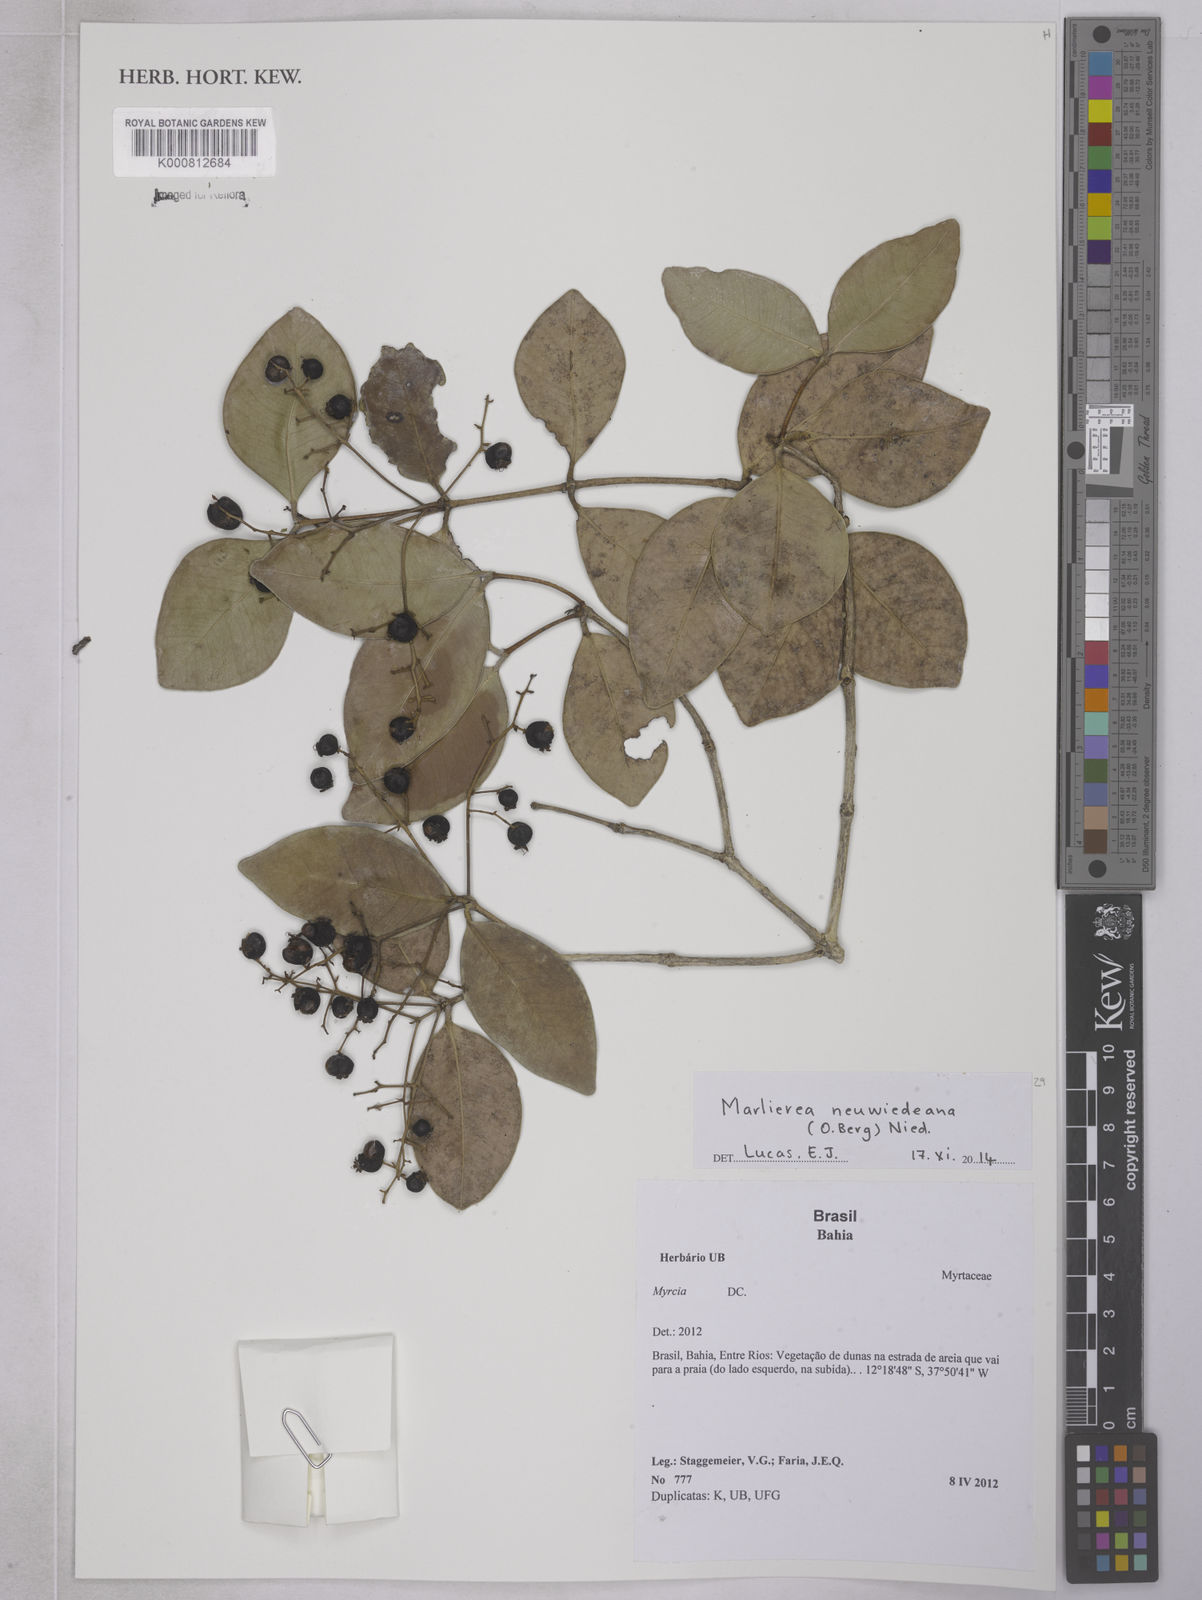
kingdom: Plantae
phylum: Tracheophyta
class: Magnoliopsida
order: Myrtales
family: Myrtaceae
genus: Myrcia
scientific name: Myrcia neuwiedeana
